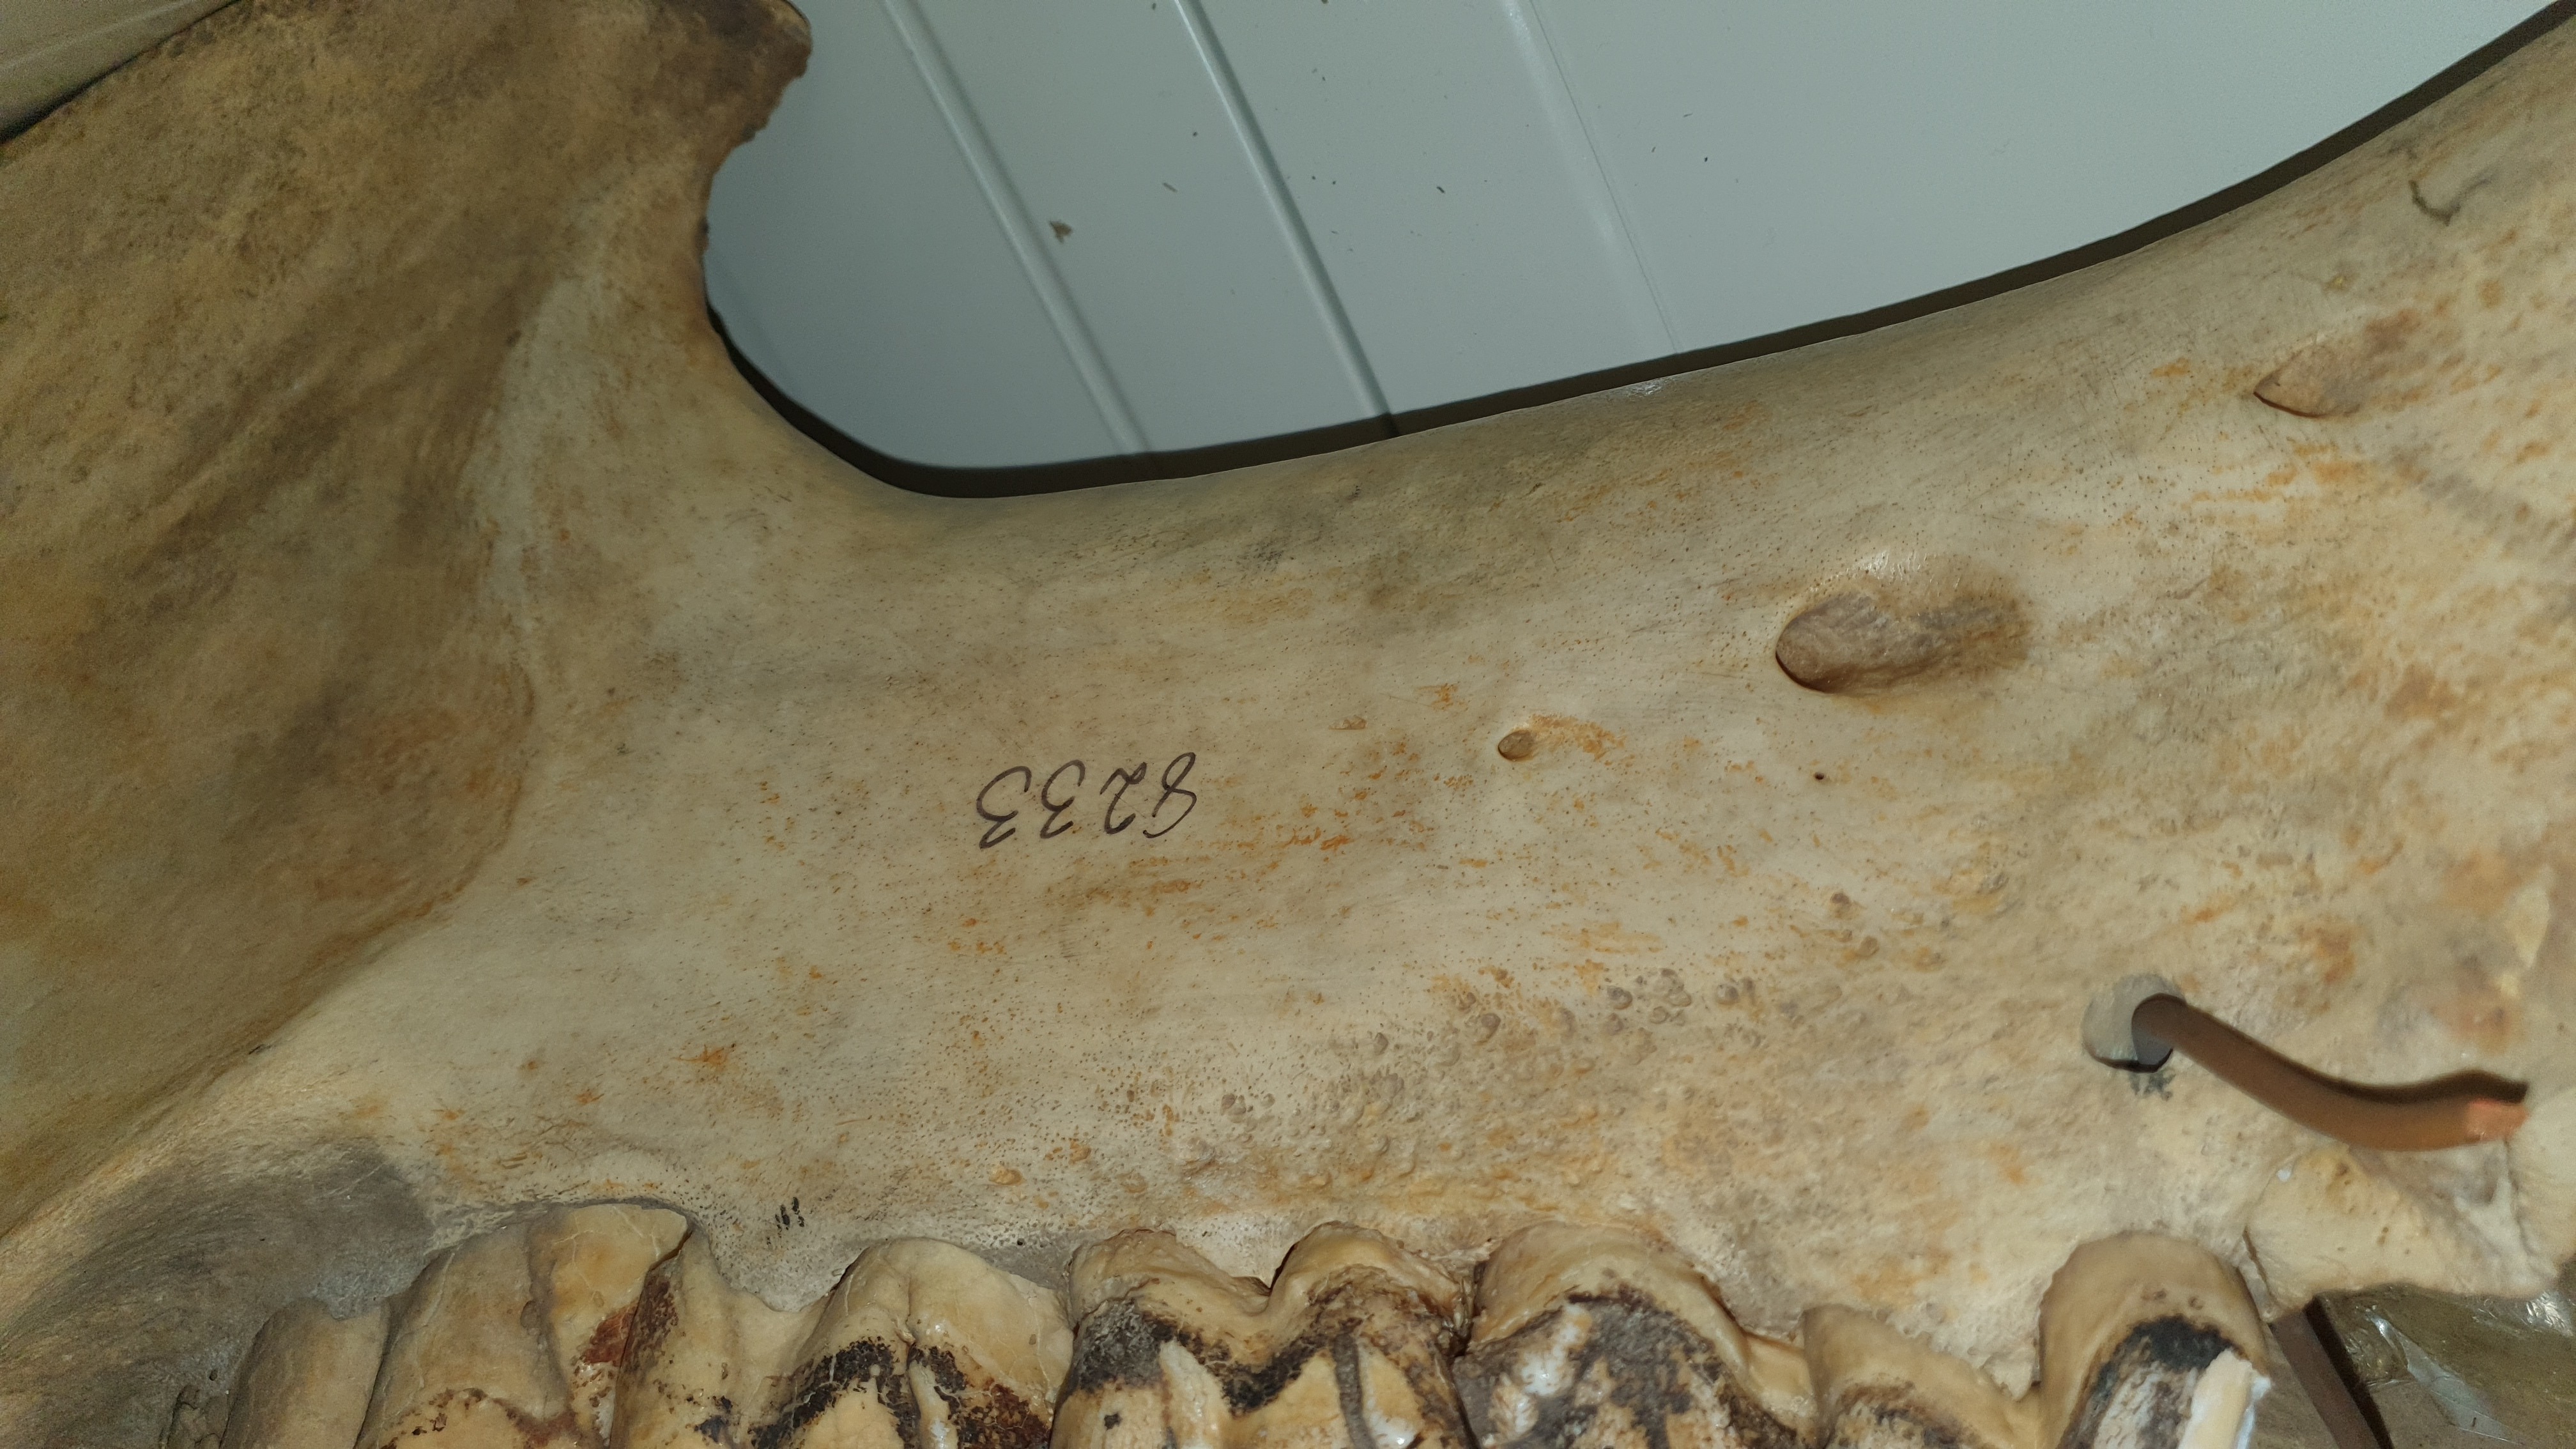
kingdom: Animalia
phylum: Chordata
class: Mammalia
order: Artiodactyla
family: Hippopotamidae
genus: Hippopotamus
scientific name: Hippopotamus amphibius
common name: Common hippopotamus
